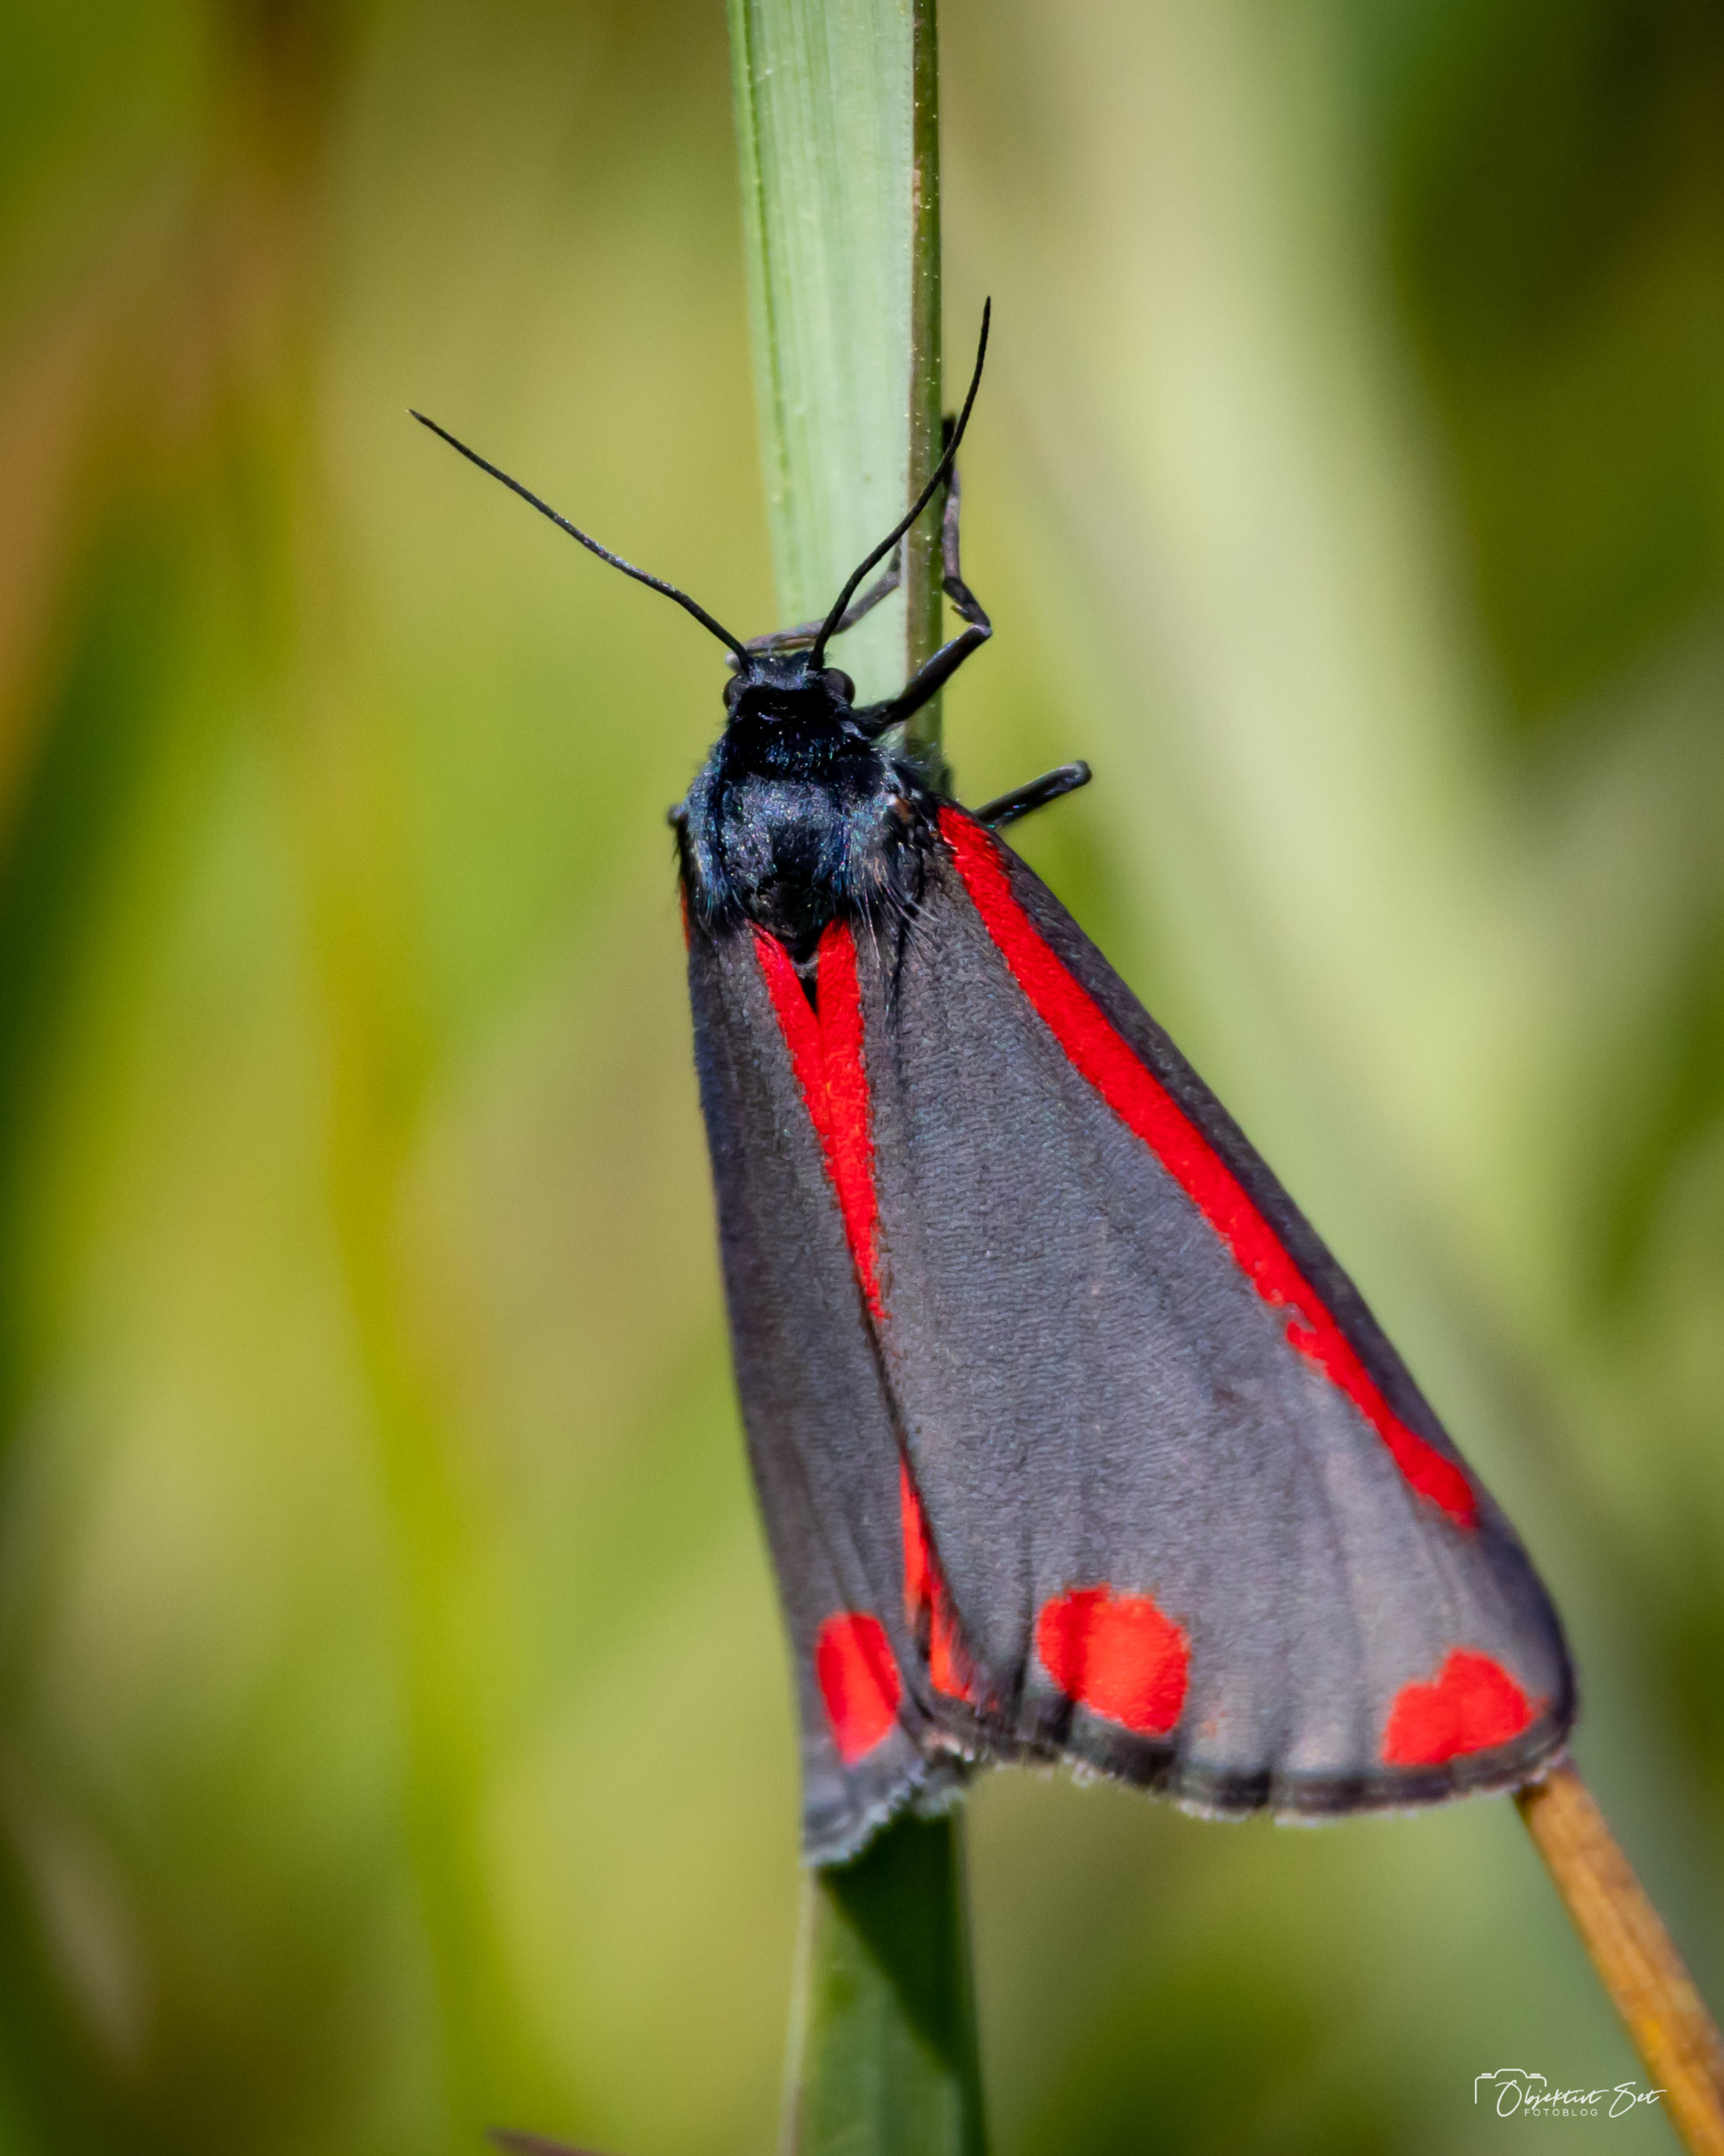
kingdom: Animalia
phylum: Arthropoda
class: Insecta
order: Lepidoptera
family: Erebidae
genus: Tyria
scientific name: Tyria jacobaeae
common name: Blodplet
